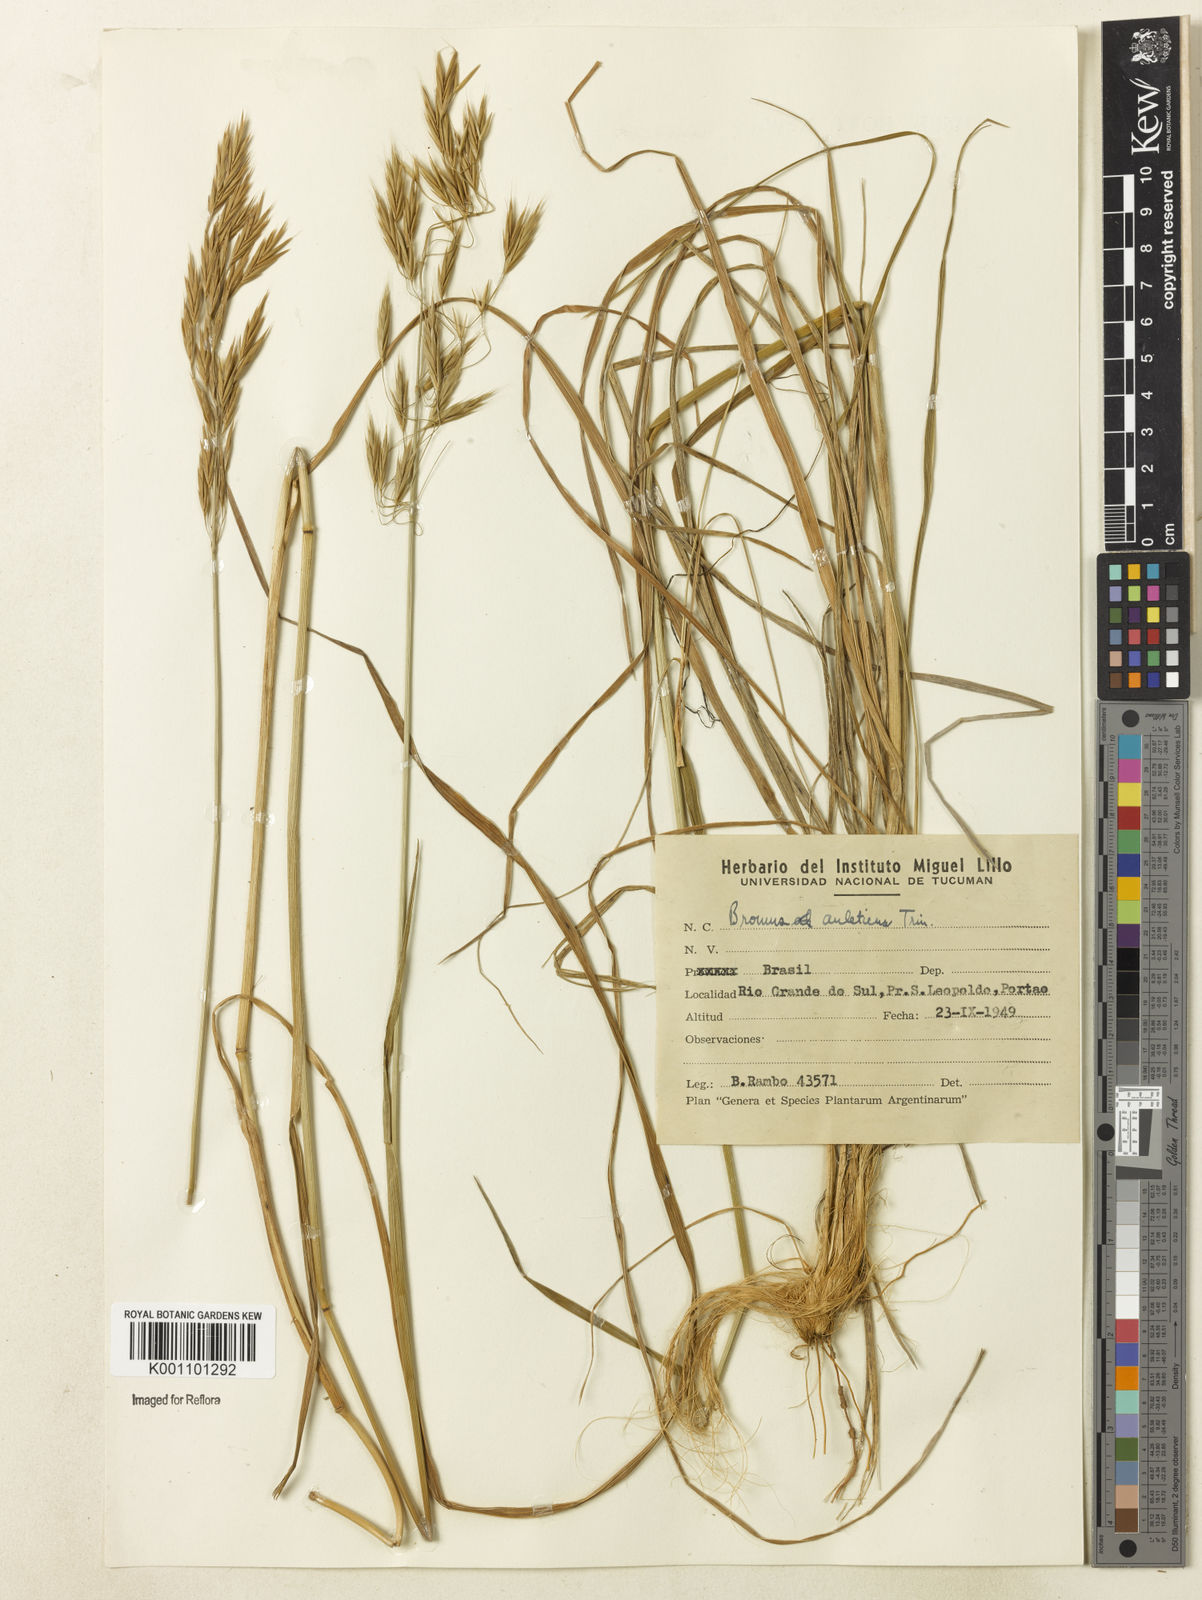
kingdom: Plantae
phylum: Tracheophyta
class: Liliopsida
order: Poales
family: Poaceae
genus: Bromus
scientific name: Bromus auleticus
